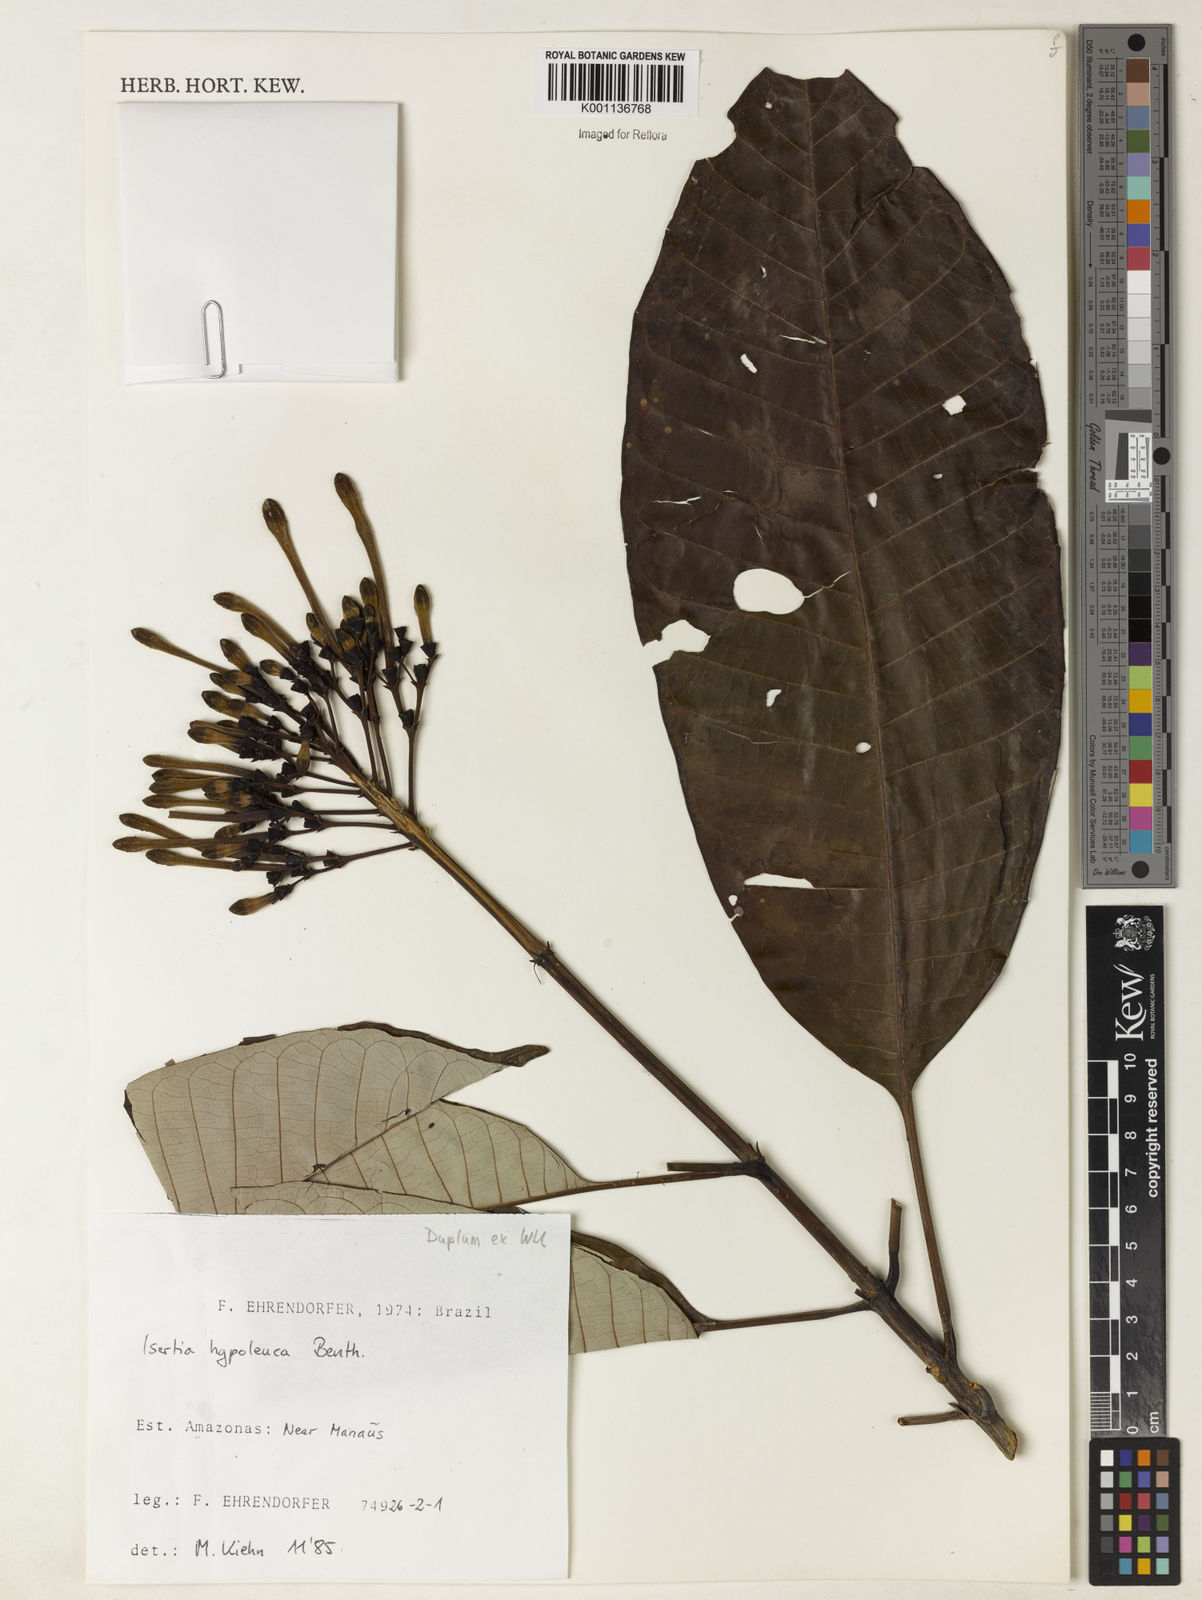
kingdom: Plantae
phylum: Tracheophyta
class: Magnoliopsida
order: Gentianales
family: Rubiaceae
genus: Isertia
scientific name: Isertia hypoleuca
